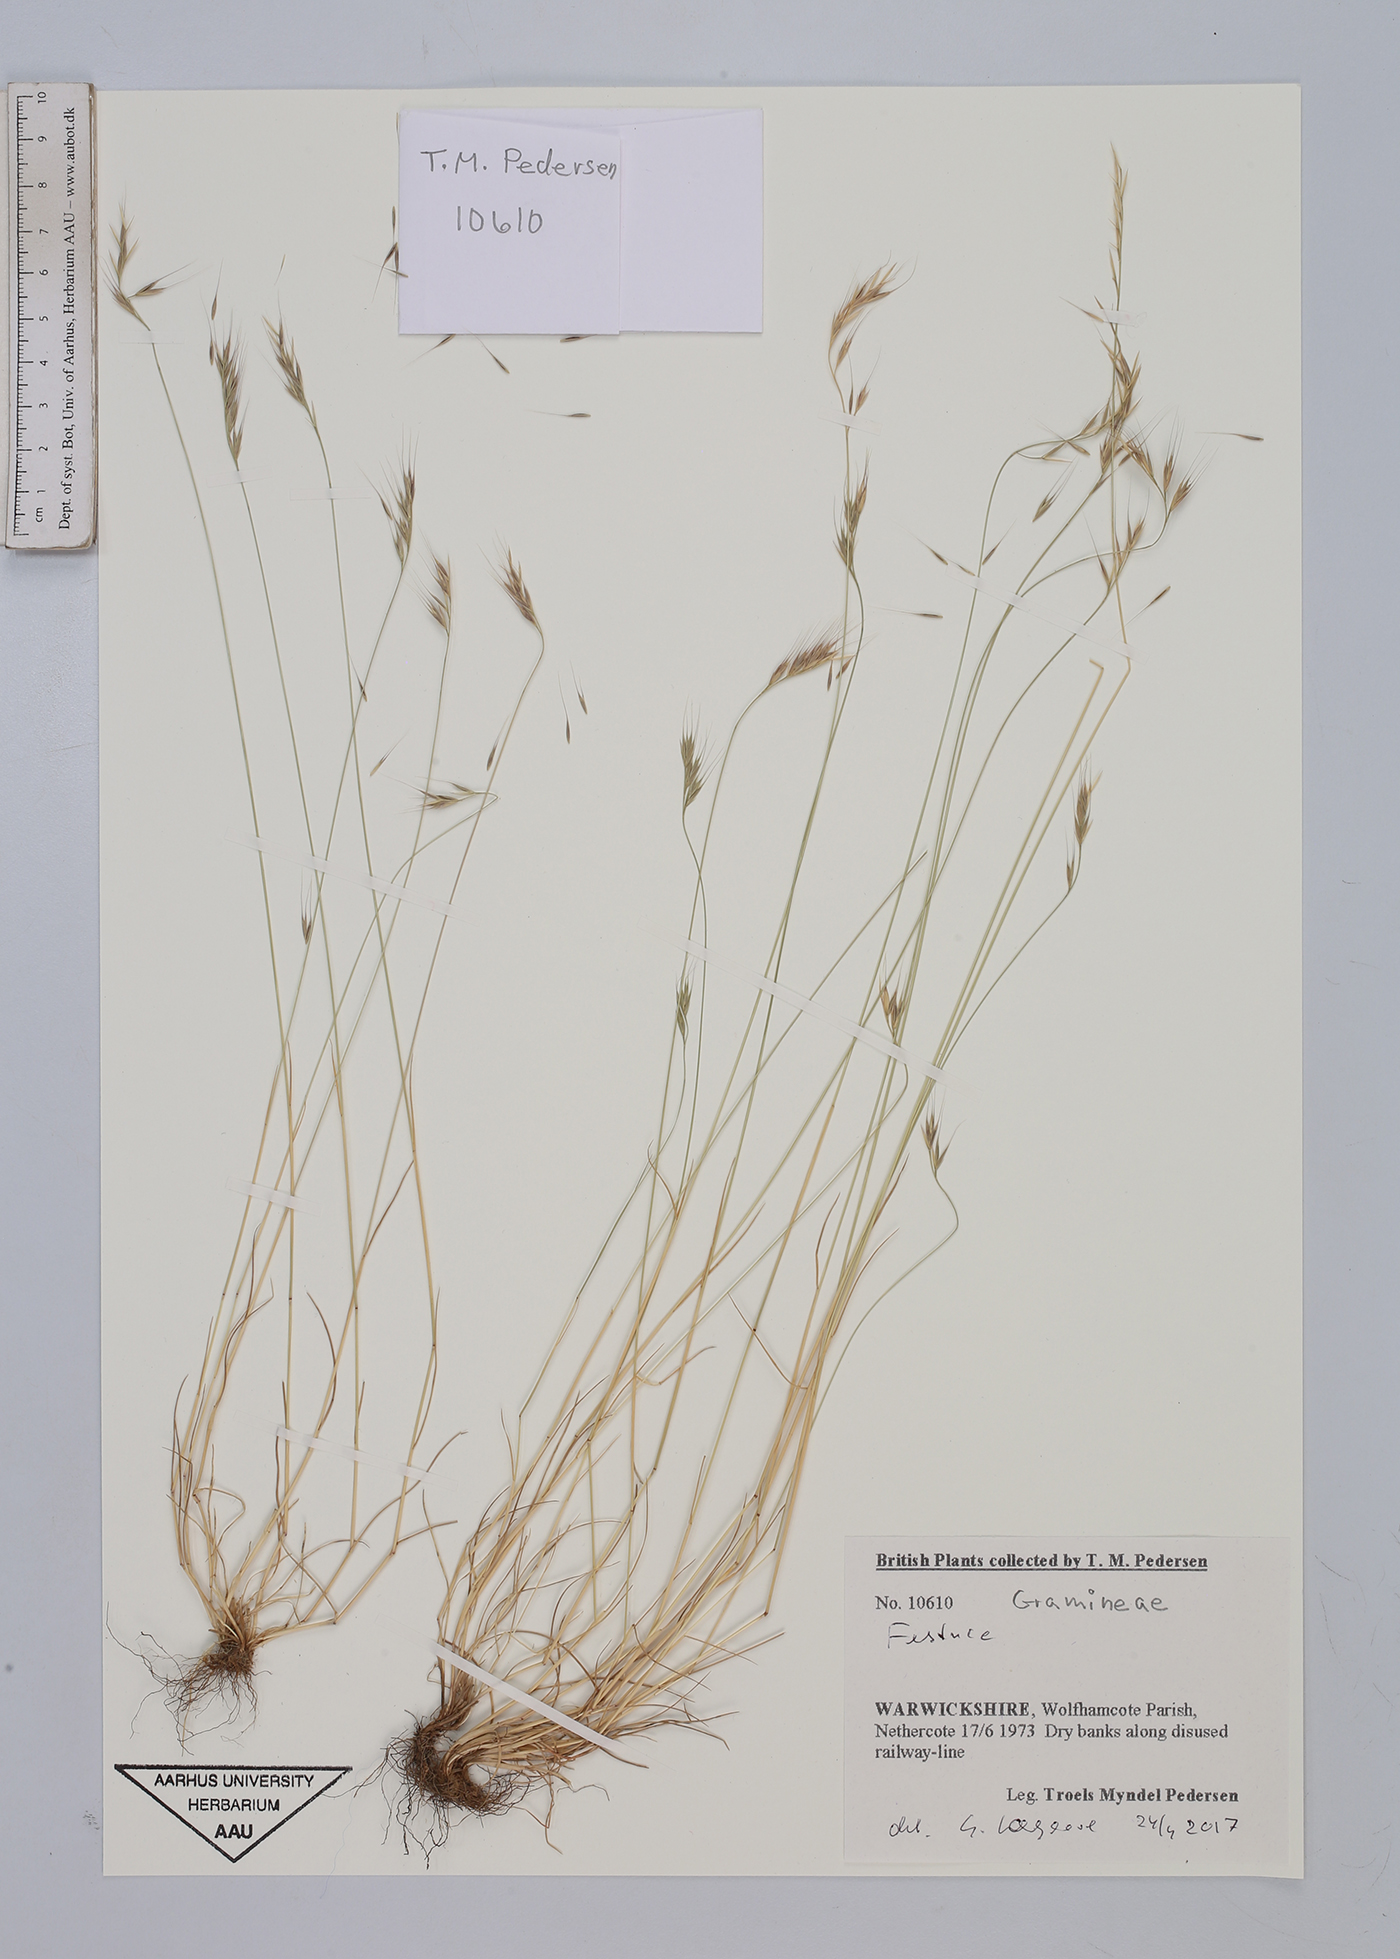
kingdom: Plantae
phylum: Tracheophyta
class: Liliopsida
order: Poales
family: Poaceae
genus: Festuca
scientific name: Festuca
